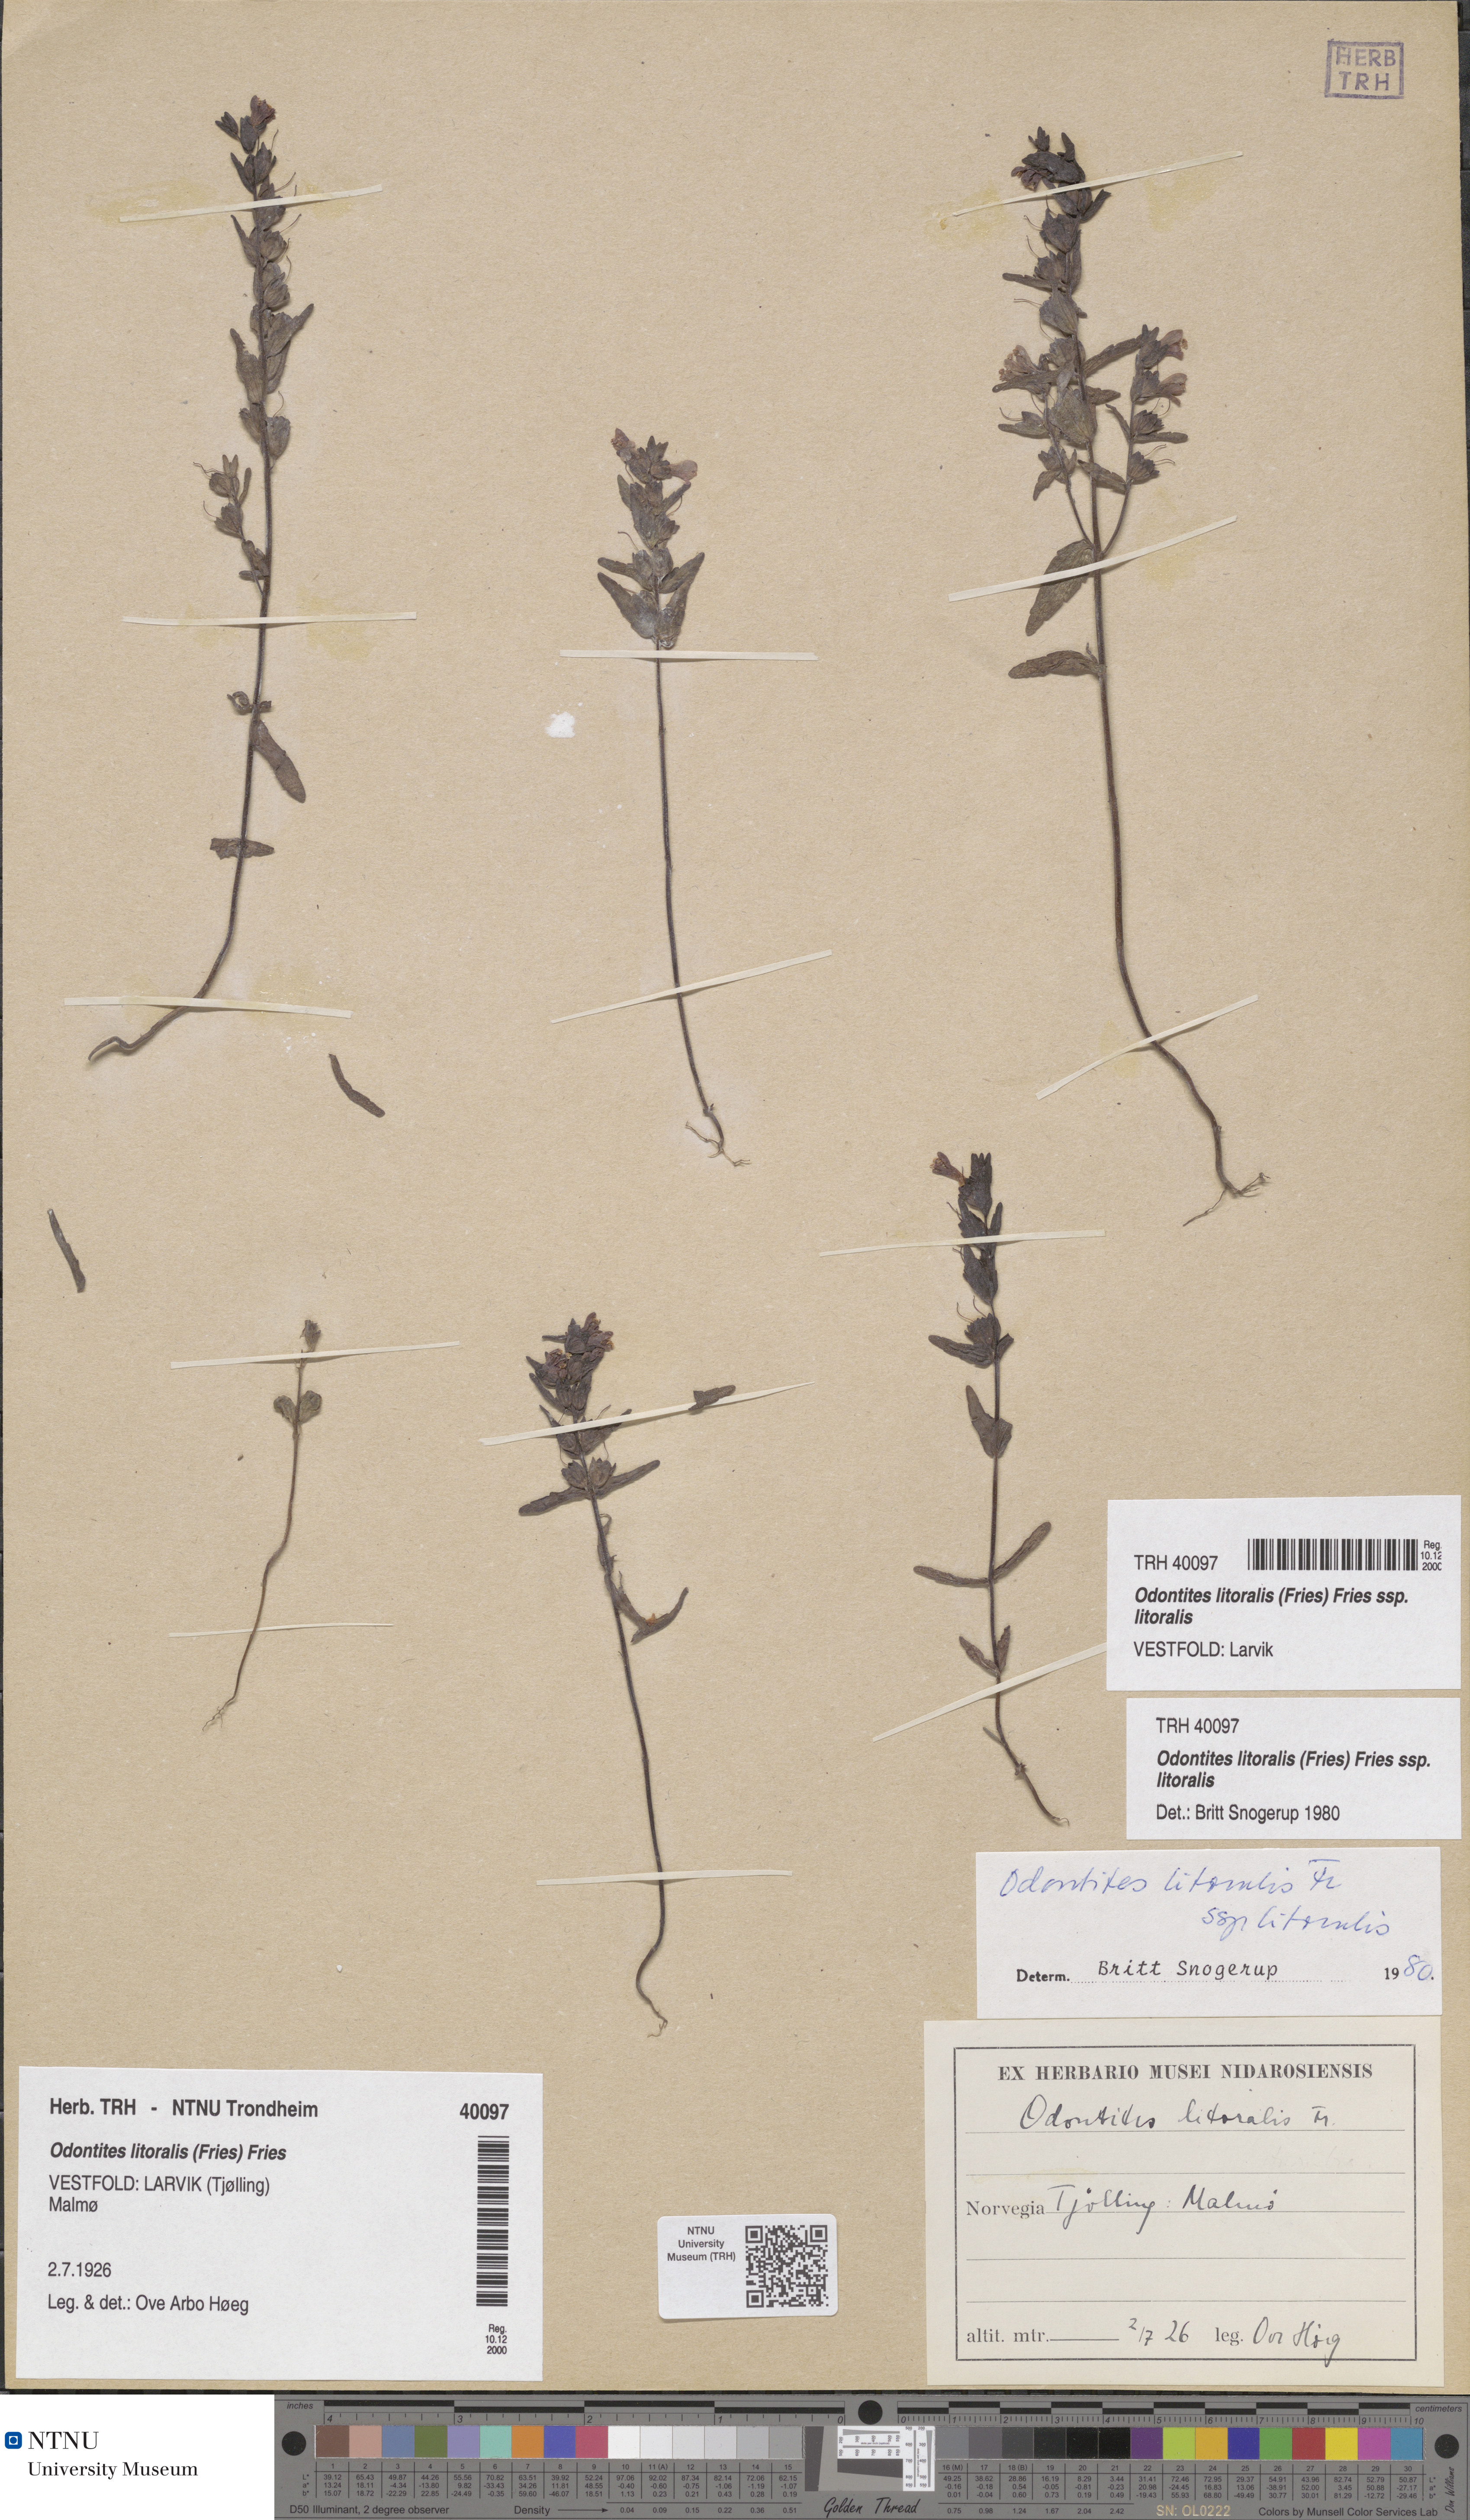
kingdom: Plantae
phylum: Tracheophyta
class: Magnoliopsida
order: Lamiales
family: Orobanchaceae
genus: Odontites
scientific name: Odontites litoralis
